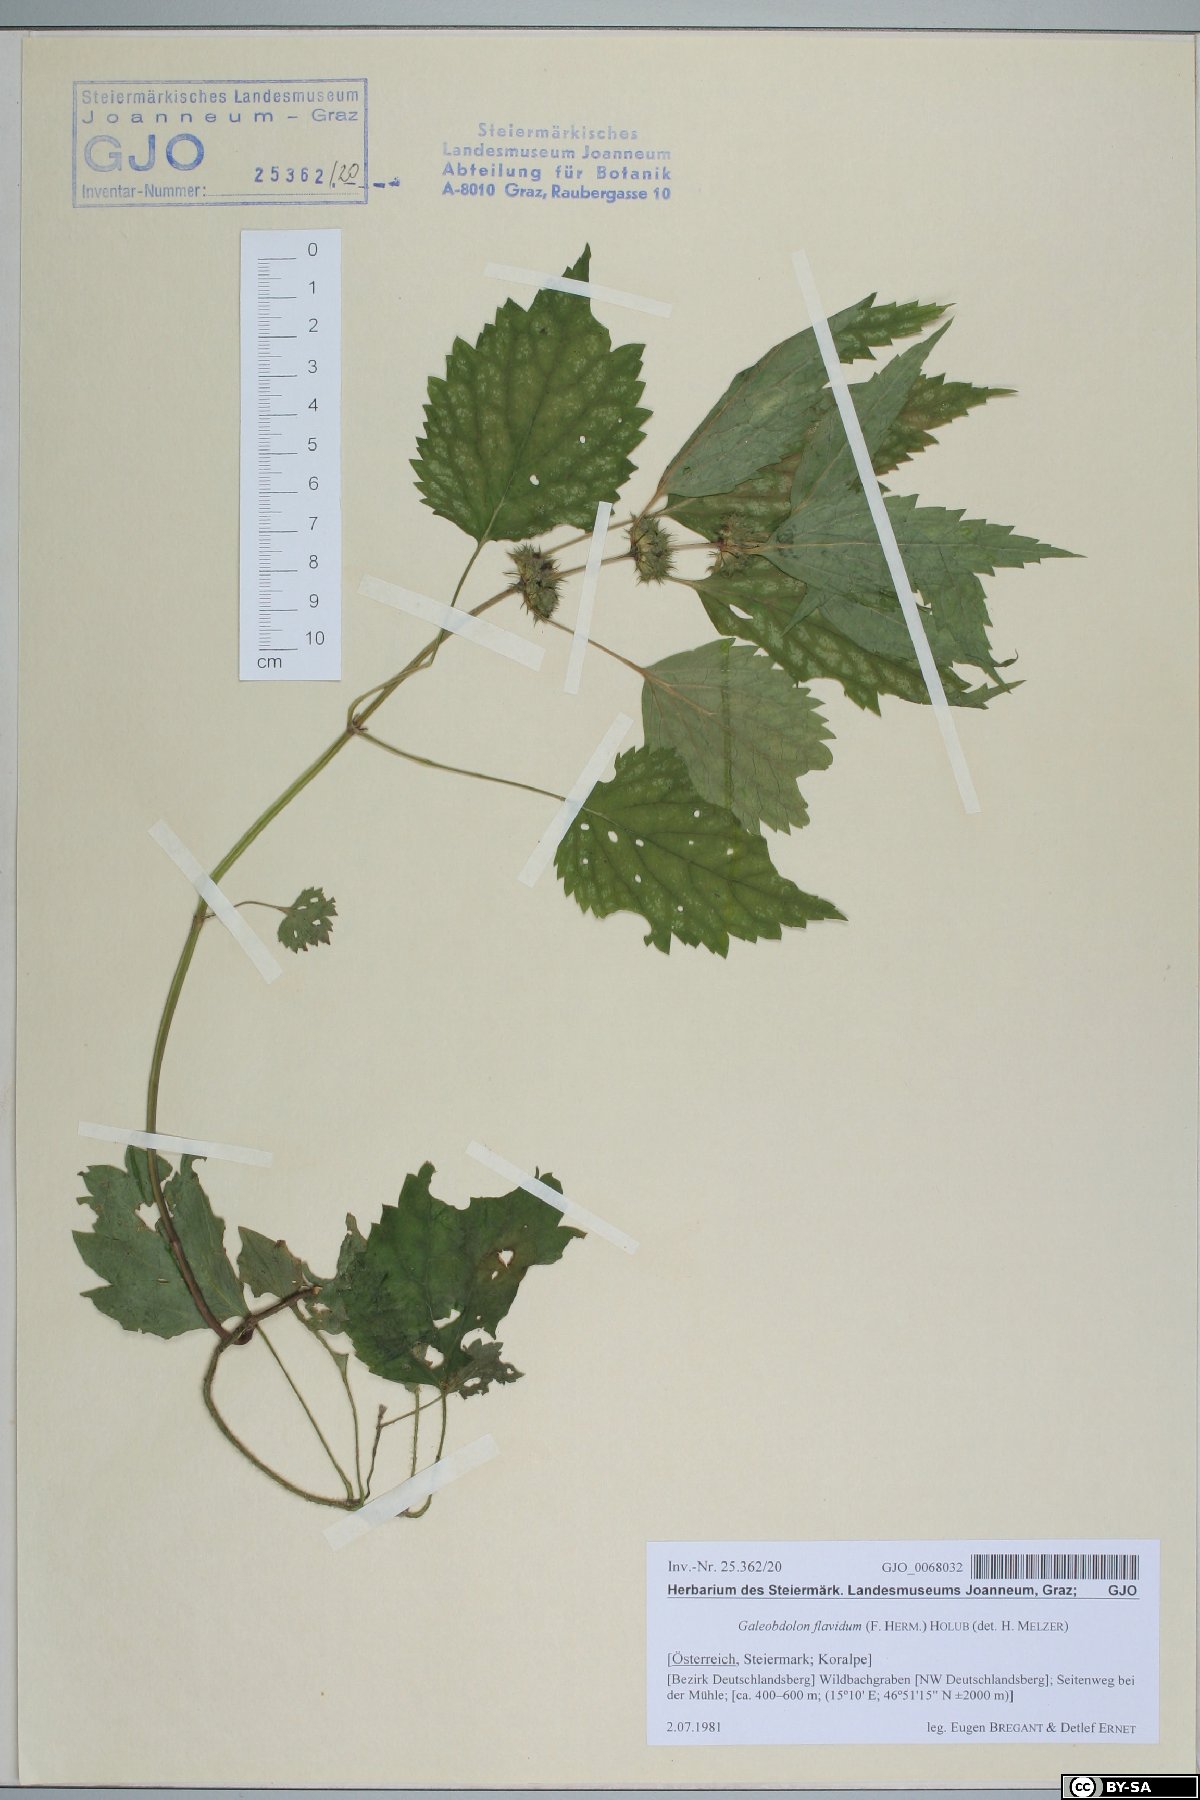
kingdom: Plantae
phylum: Tracheophyta
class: Magnoliopsida
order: Lamiales
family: Lamiaceae
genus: Lamium
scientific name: Lamium galeobdolon
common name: Yellow archangel
